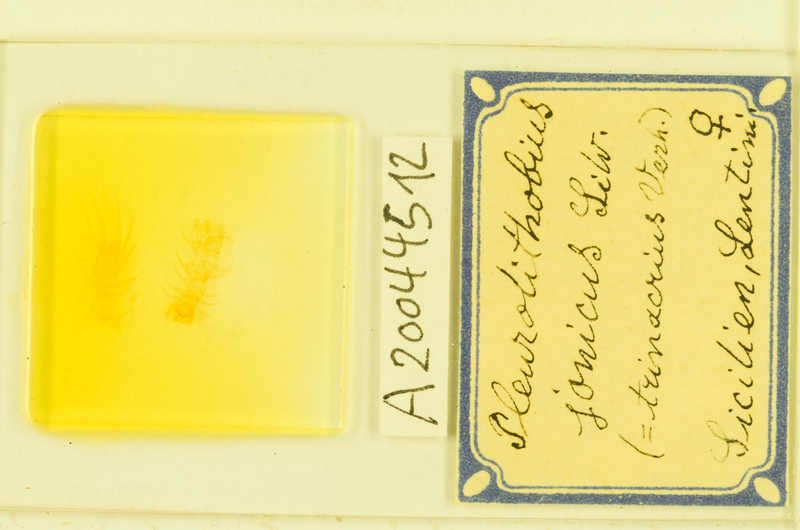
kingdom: Animalia
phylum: Arthropoda
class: Chilopoda
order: Lithobiomorpha
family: Lithobiidae
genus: Pleurolithobius
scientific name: Pleurolithobius
